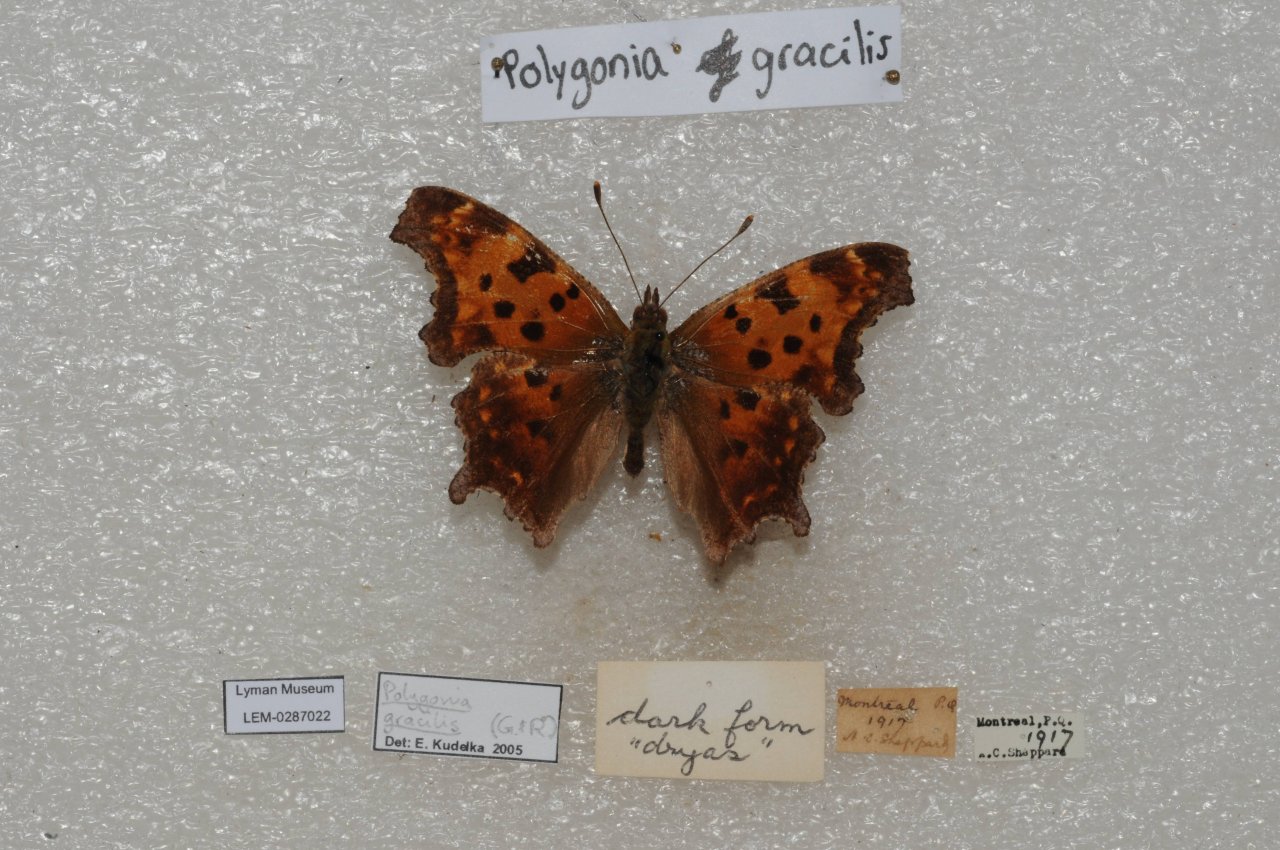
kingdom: Animalia
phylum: Arthropoda
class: Insecta
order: Lepidoptera
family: Nymphalidae
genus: Polygonia
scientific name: Polygonia comma
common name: Eastern Comma
